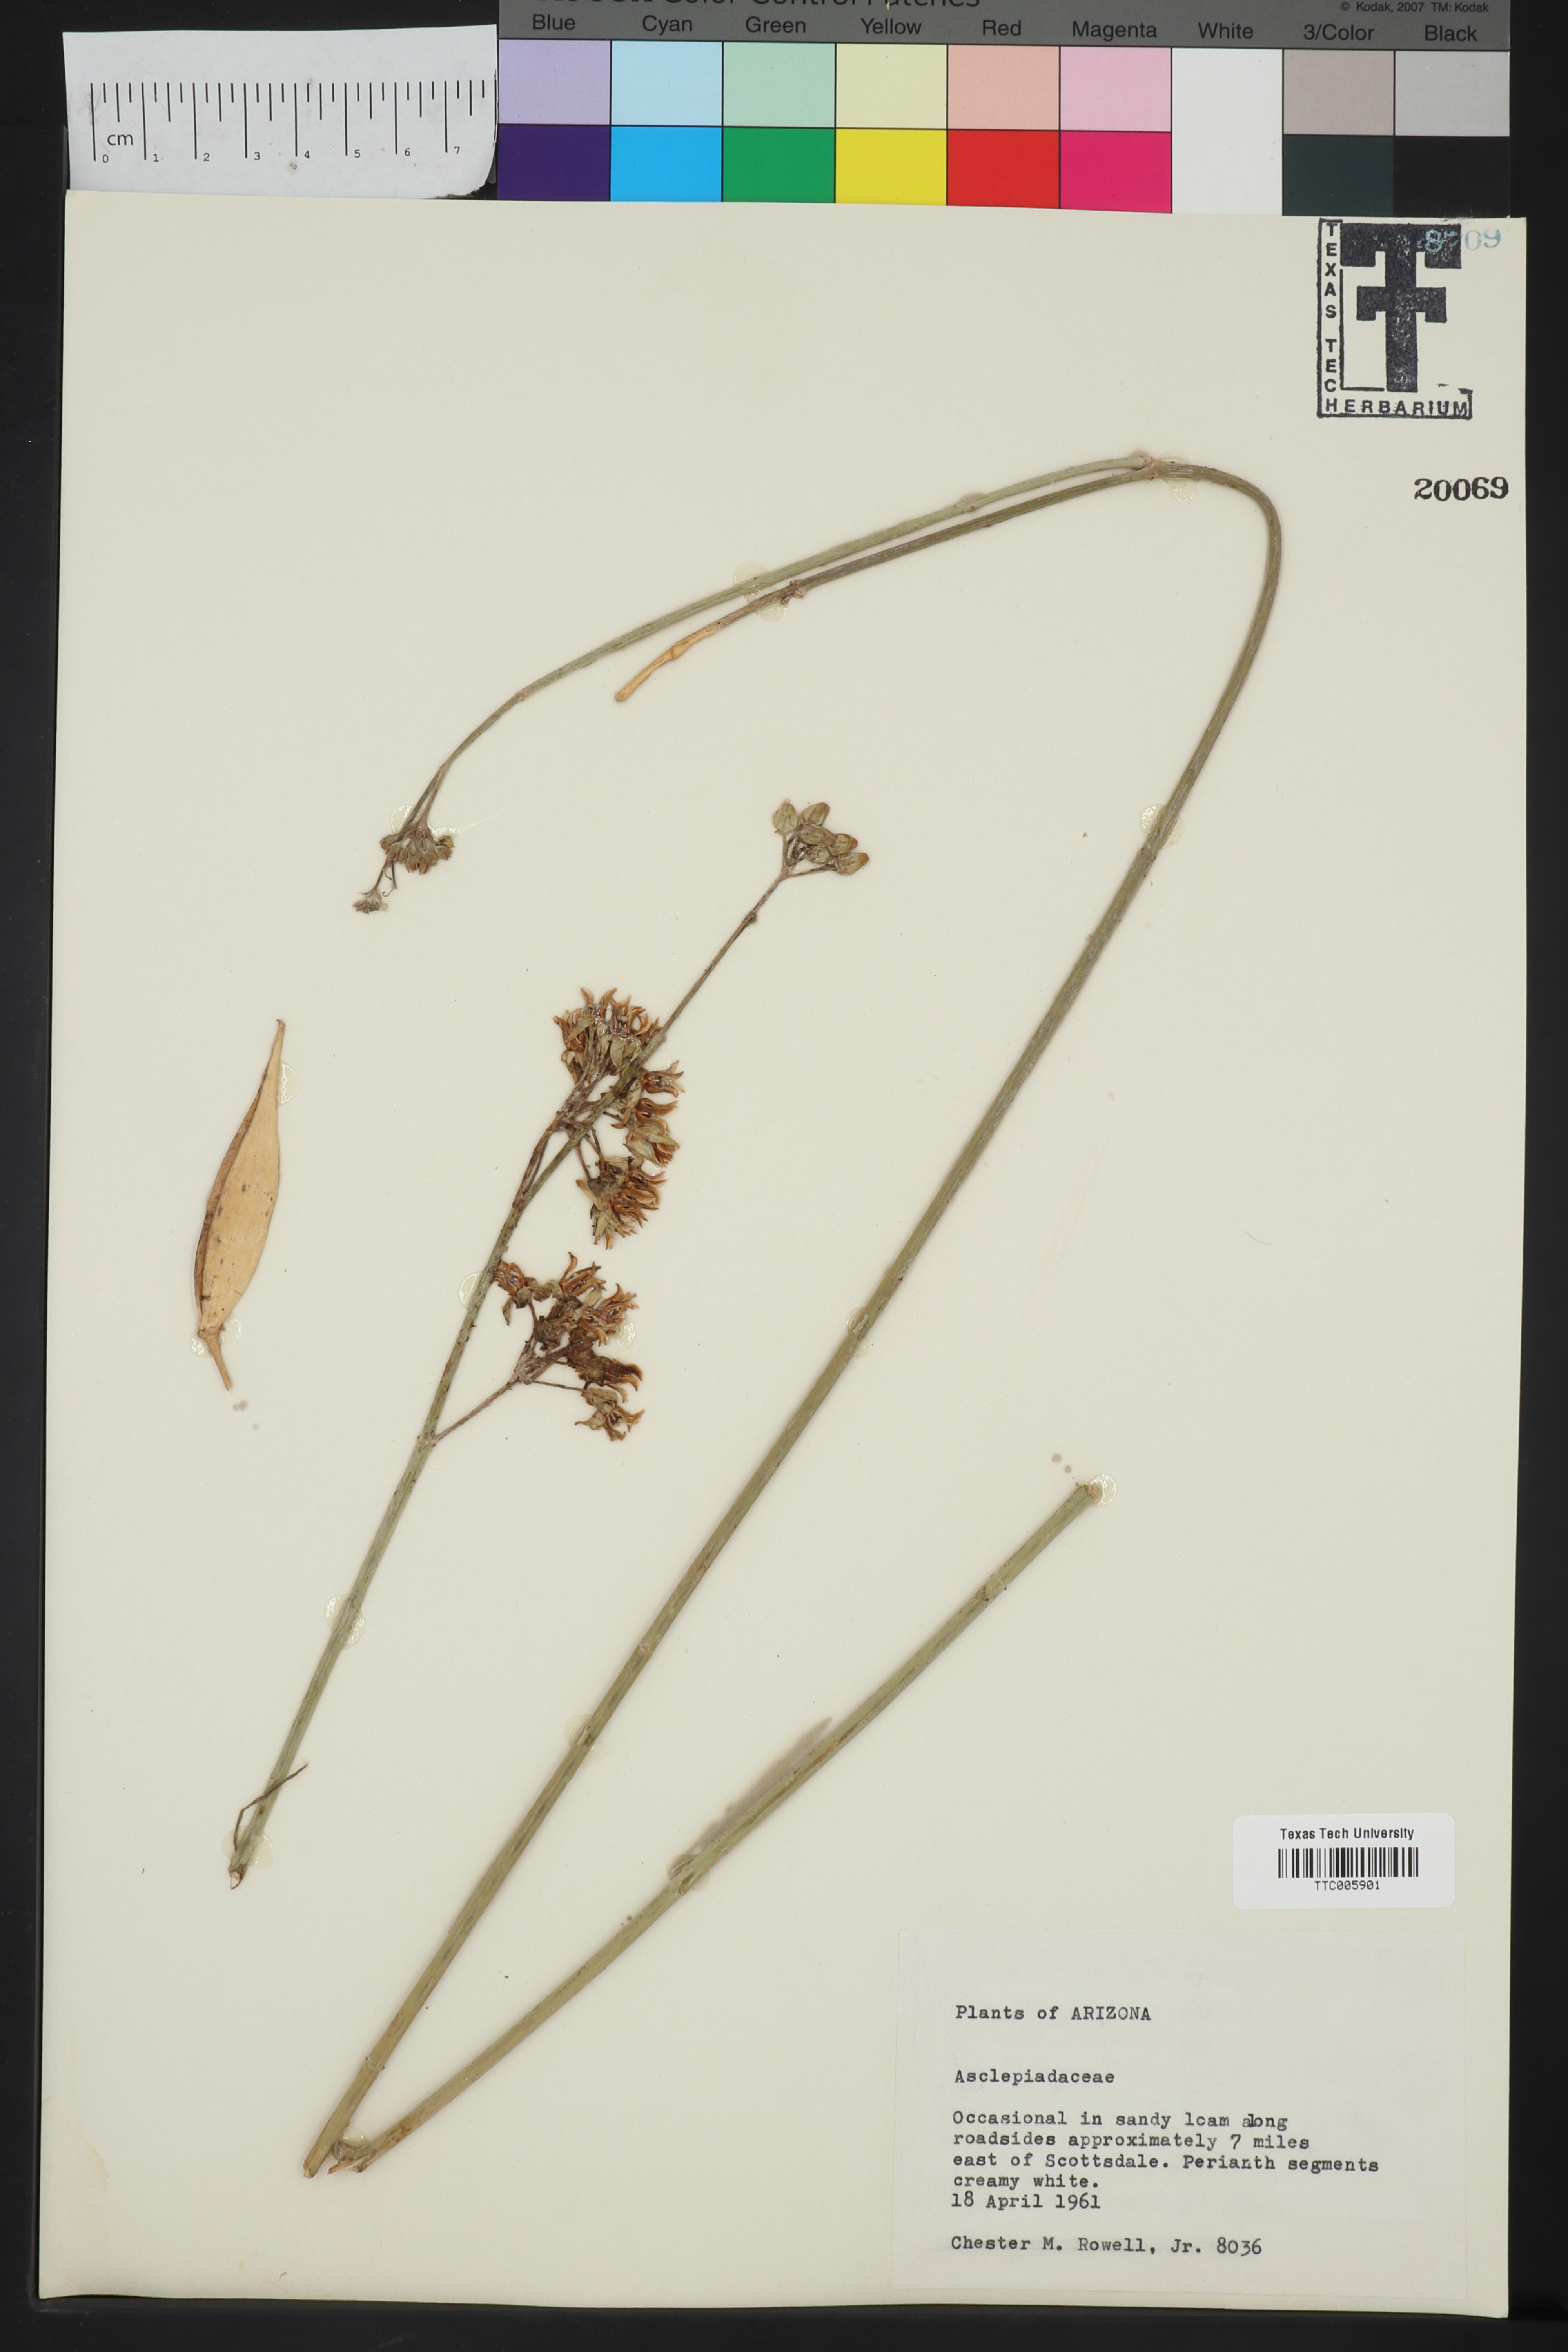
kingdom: Plantae
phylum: Tracheophyta
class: Magnoliopsida
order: Gentianales
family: Asclepiadaceae
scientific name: Asclepiadaceae
